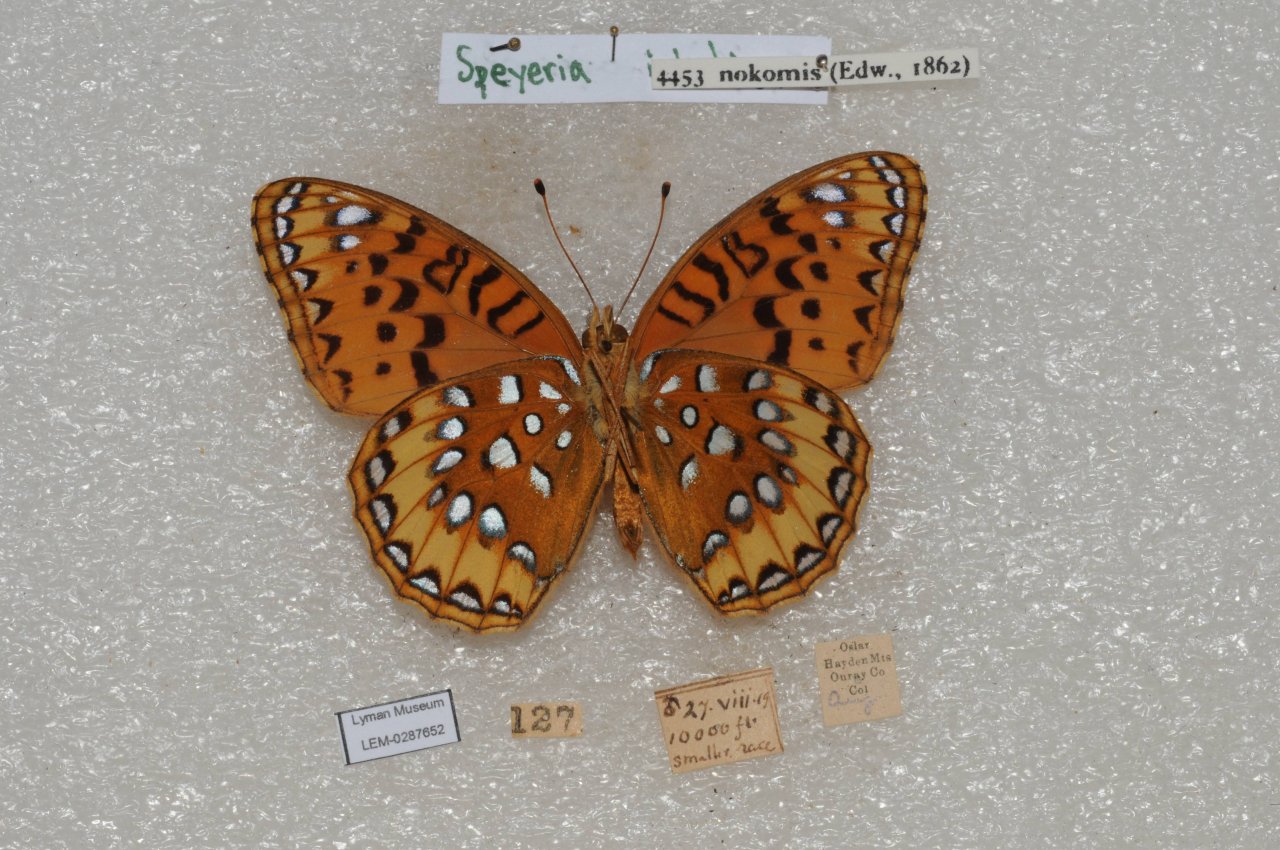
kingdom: Animalia
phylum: Arthropoda
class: Insecta
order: Lepidoptera
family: Nymphalidae
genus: Speyeria
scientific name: Speyeria nokomis
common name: Nokomis Fritillary
